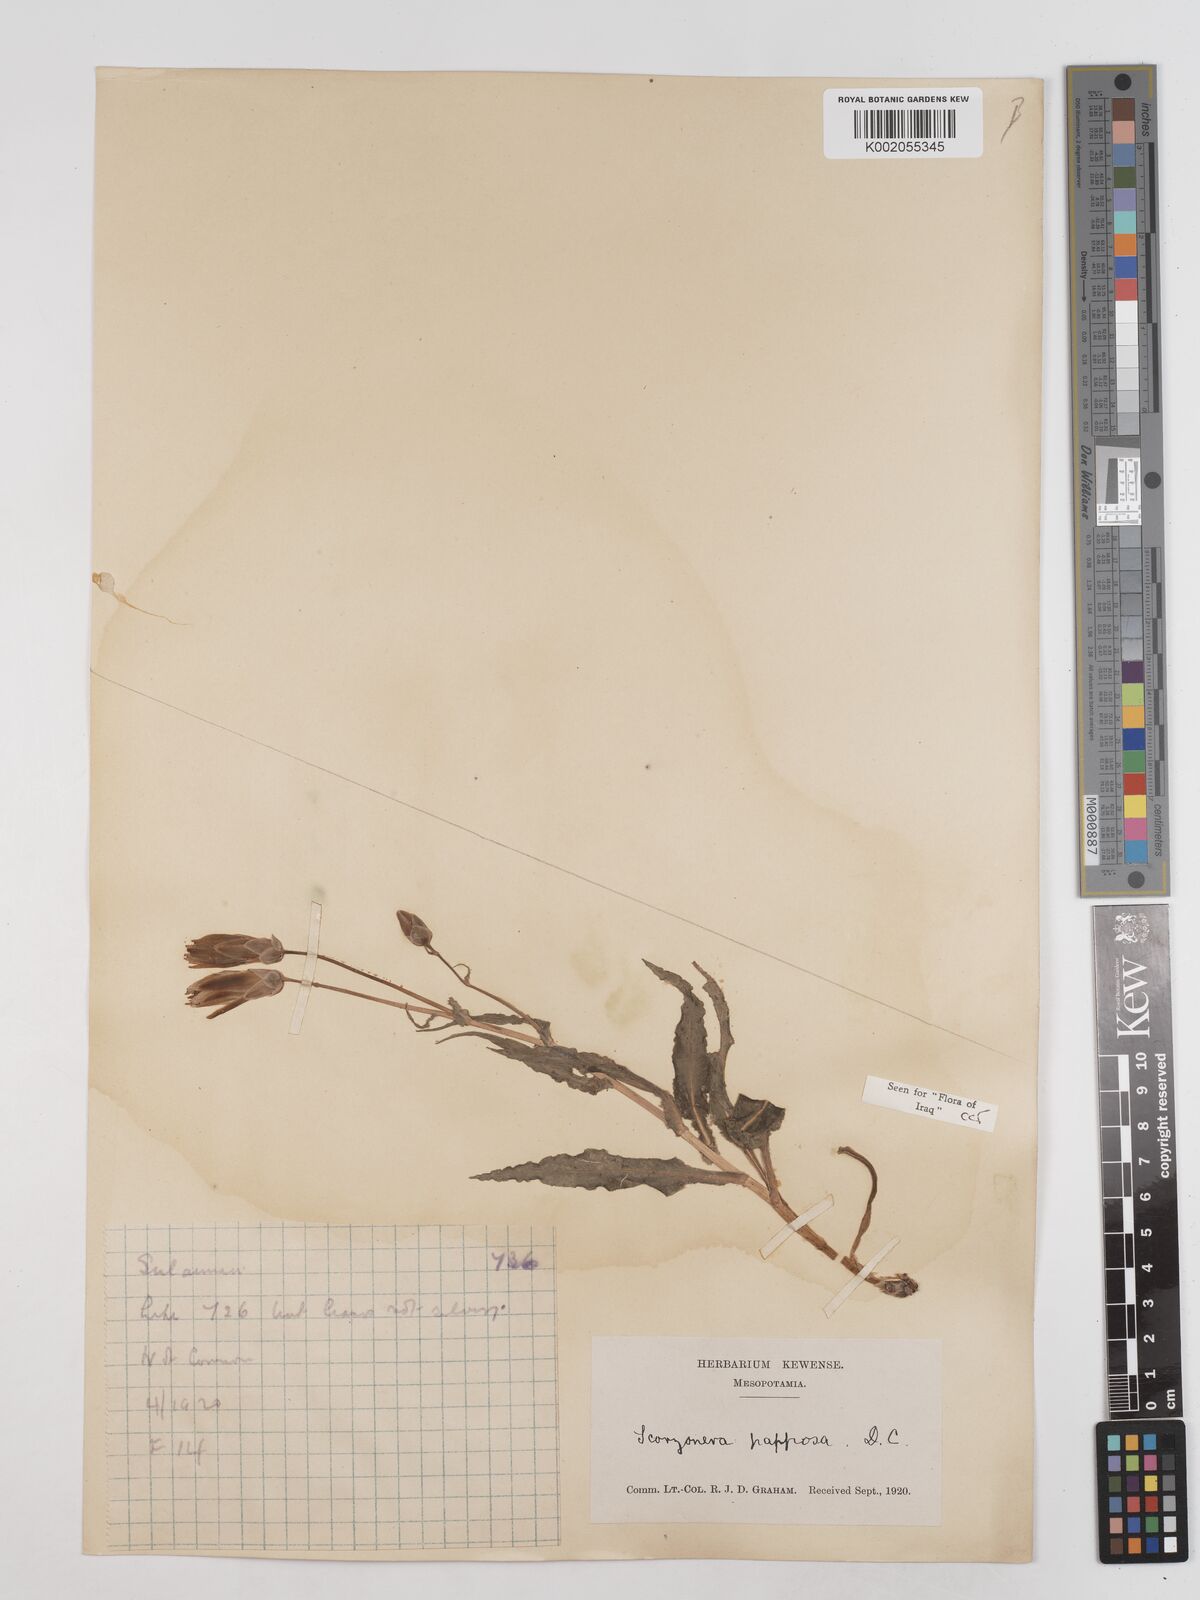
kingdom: Plantae
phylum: Tracheophyta
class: Magnoliopsida
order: Asterales
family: Asteraceae
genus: Pseudopodospermum
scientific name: Pseudopodospermum papposum
